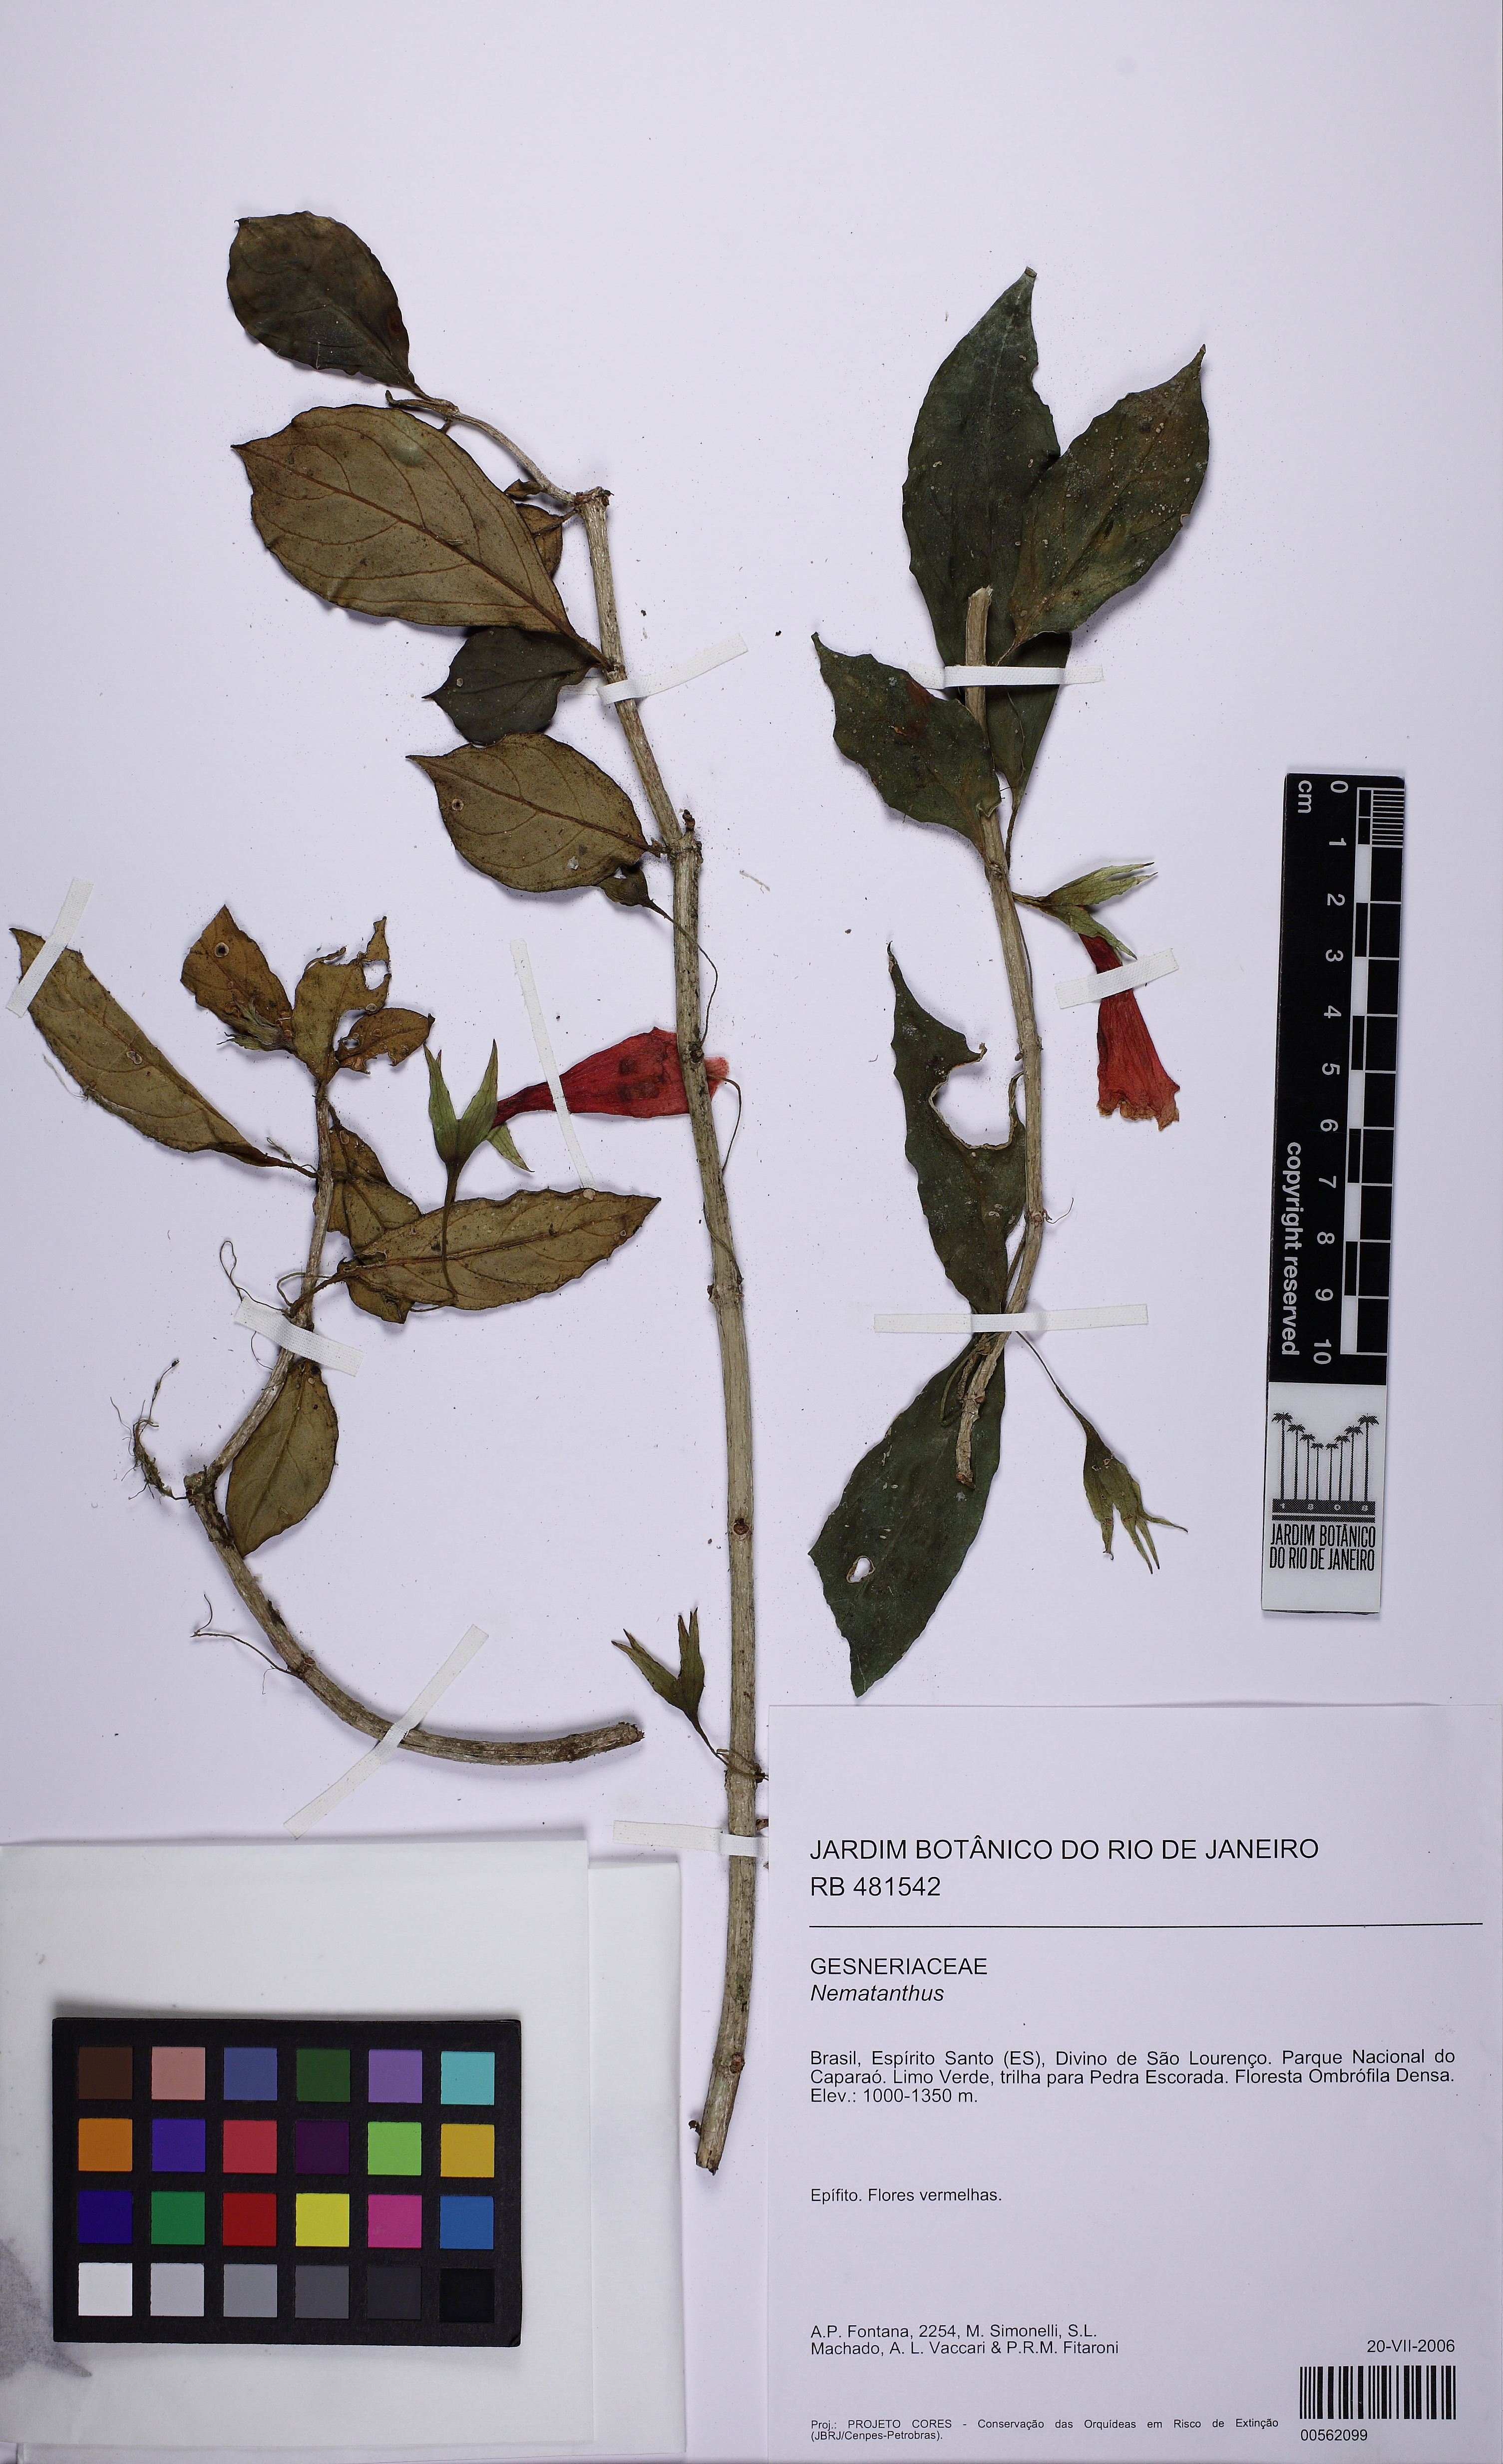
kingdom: Plantae
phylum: Tracheophyta
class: Magnoliopsida
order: Lamiales
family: Gesneriaceae
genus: Nematanthus
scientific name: Nematanthus
